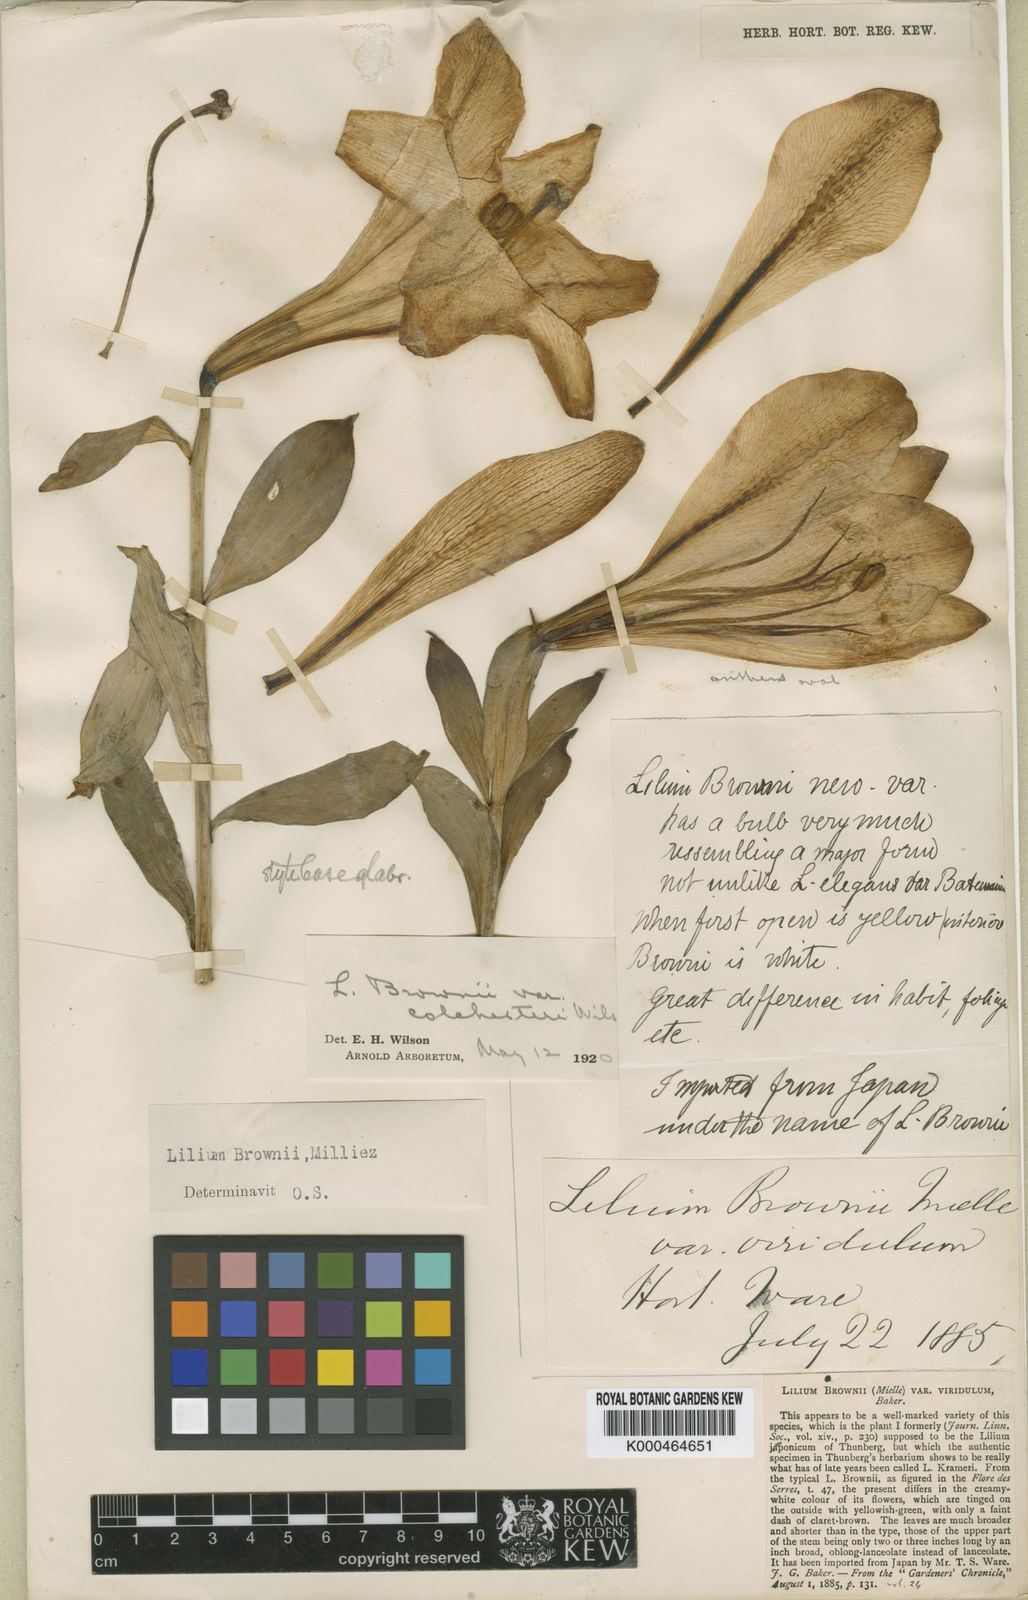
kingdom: Plantae
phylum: Tracheophyta
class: Liliopsida
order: Liliales
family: Liliaceae
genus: Lilium
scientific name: Lilium brownii
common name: Brown's lily
